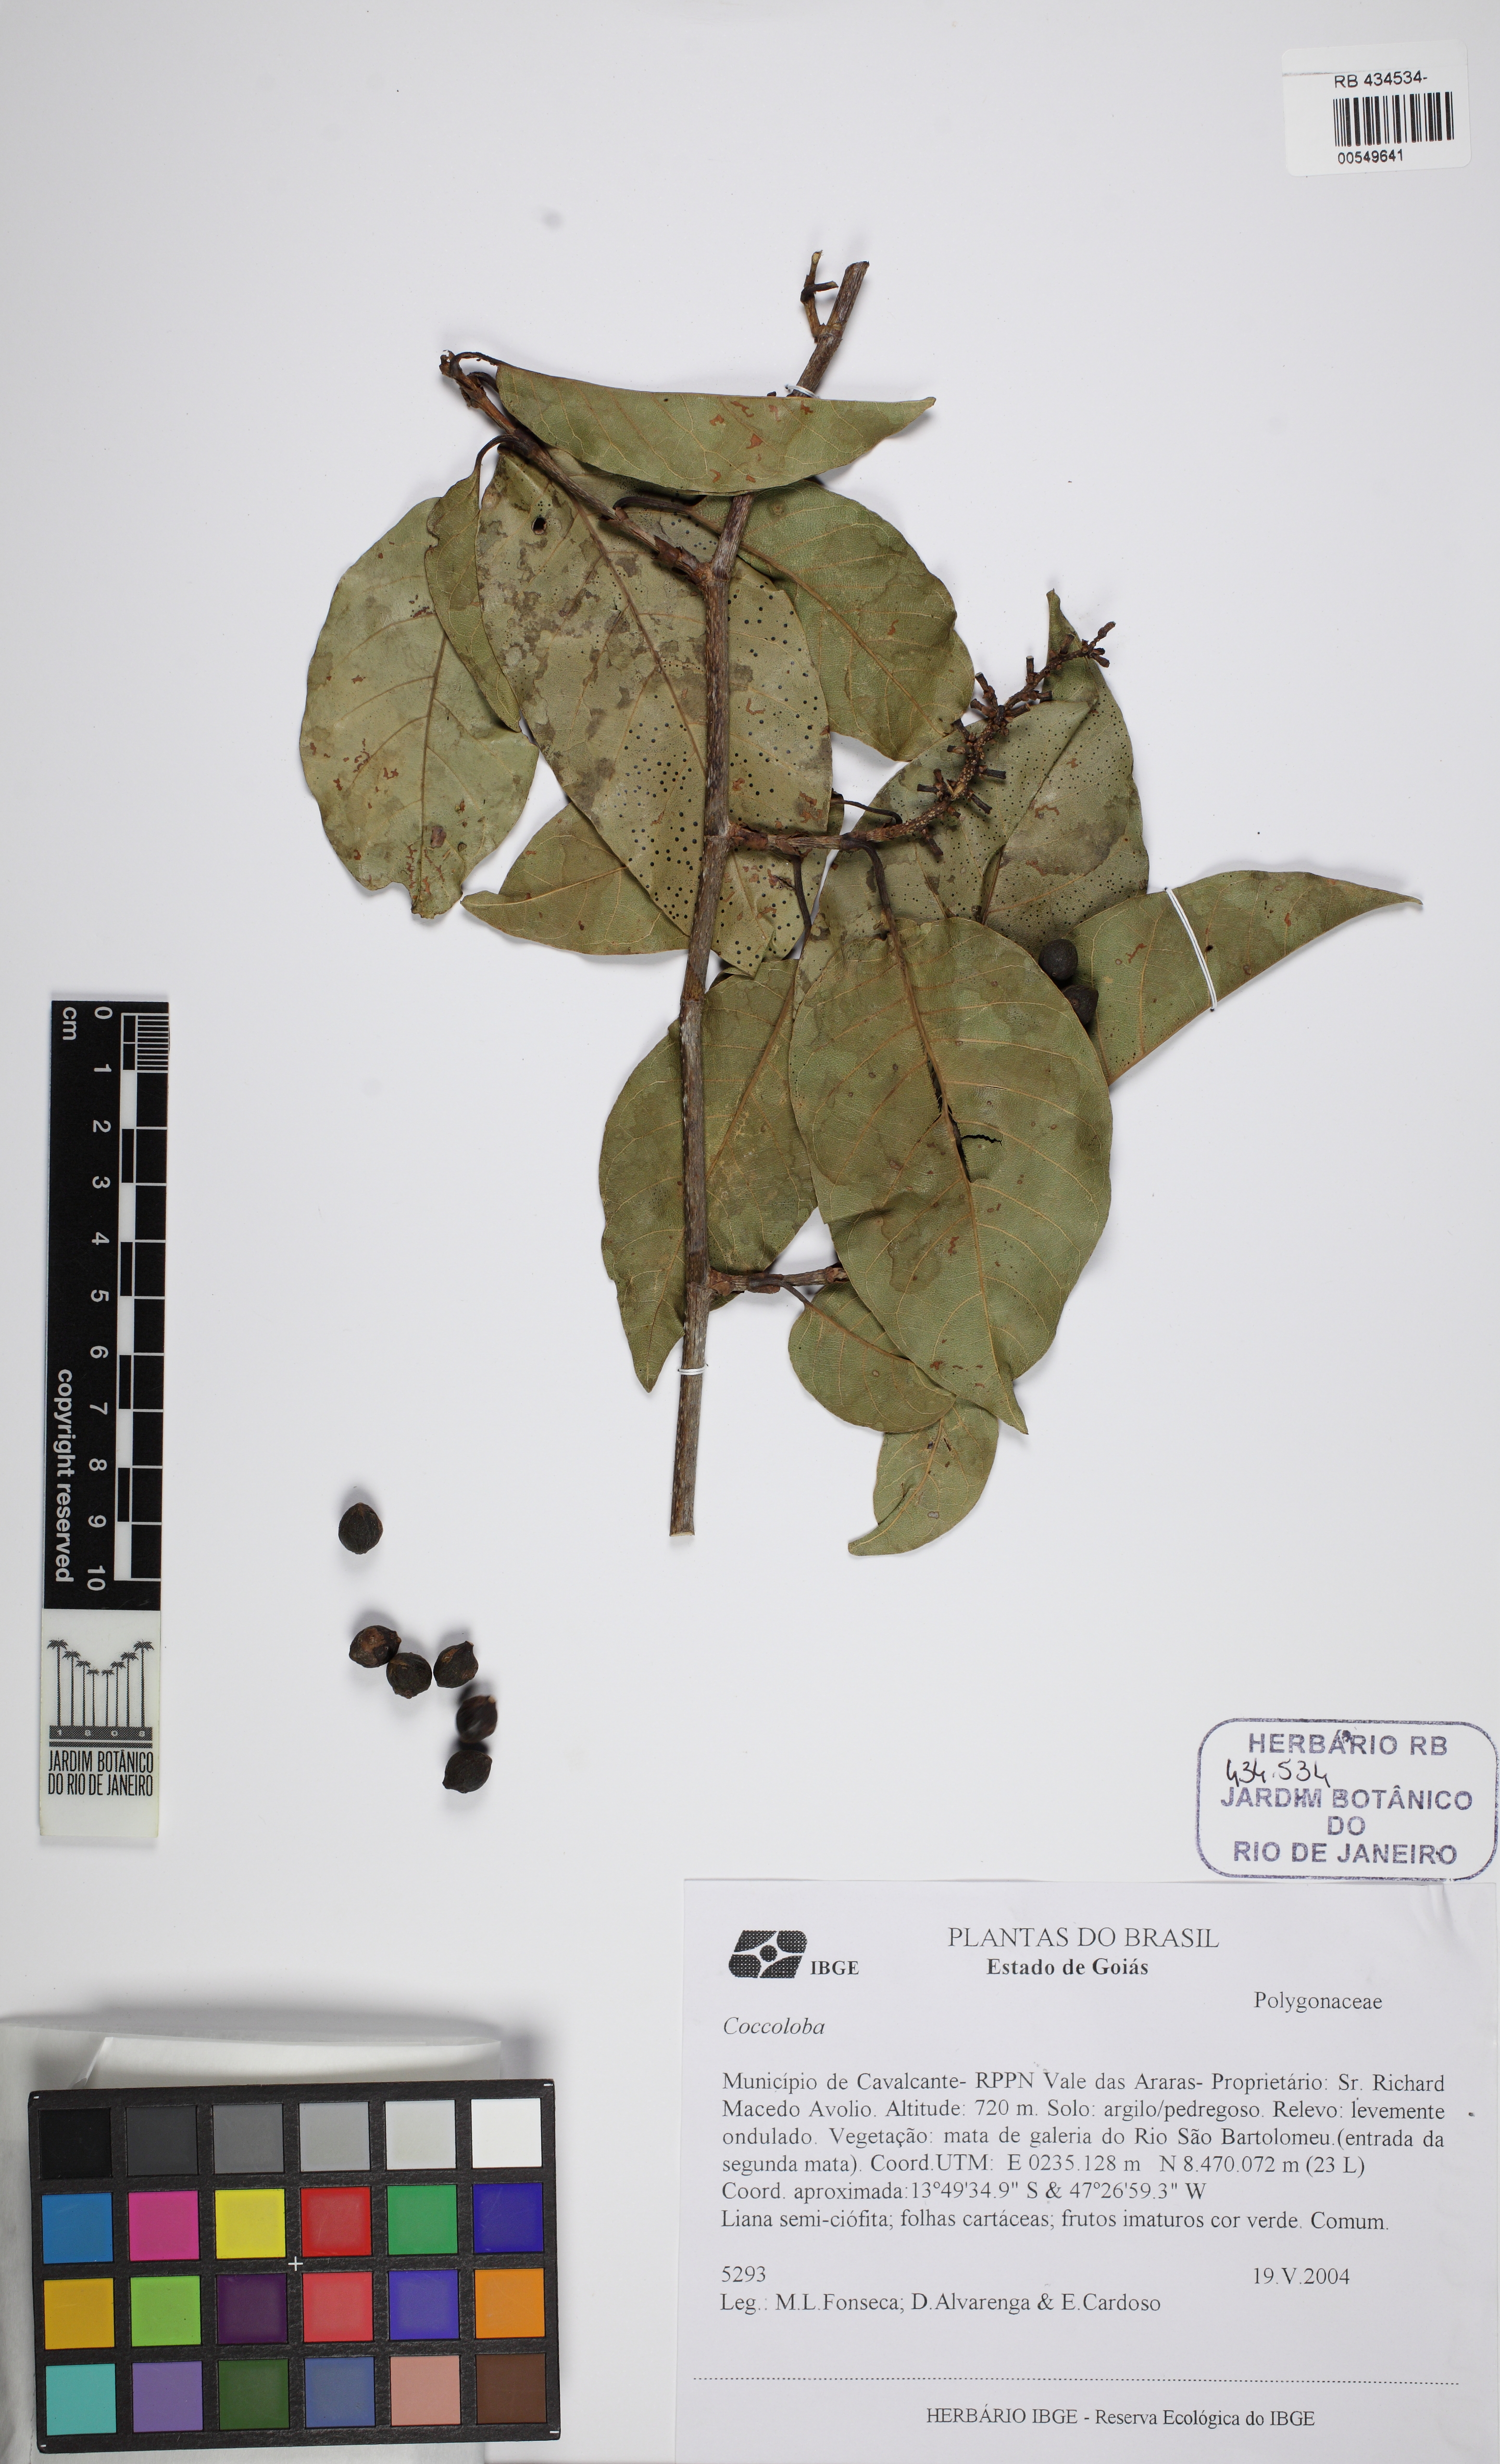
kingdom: Plantae
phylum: Tracheophyta
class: Magnoliopsida
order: Caryophyllales
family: Polygonaceae
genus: Coccoloba
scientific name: Coccoloba
